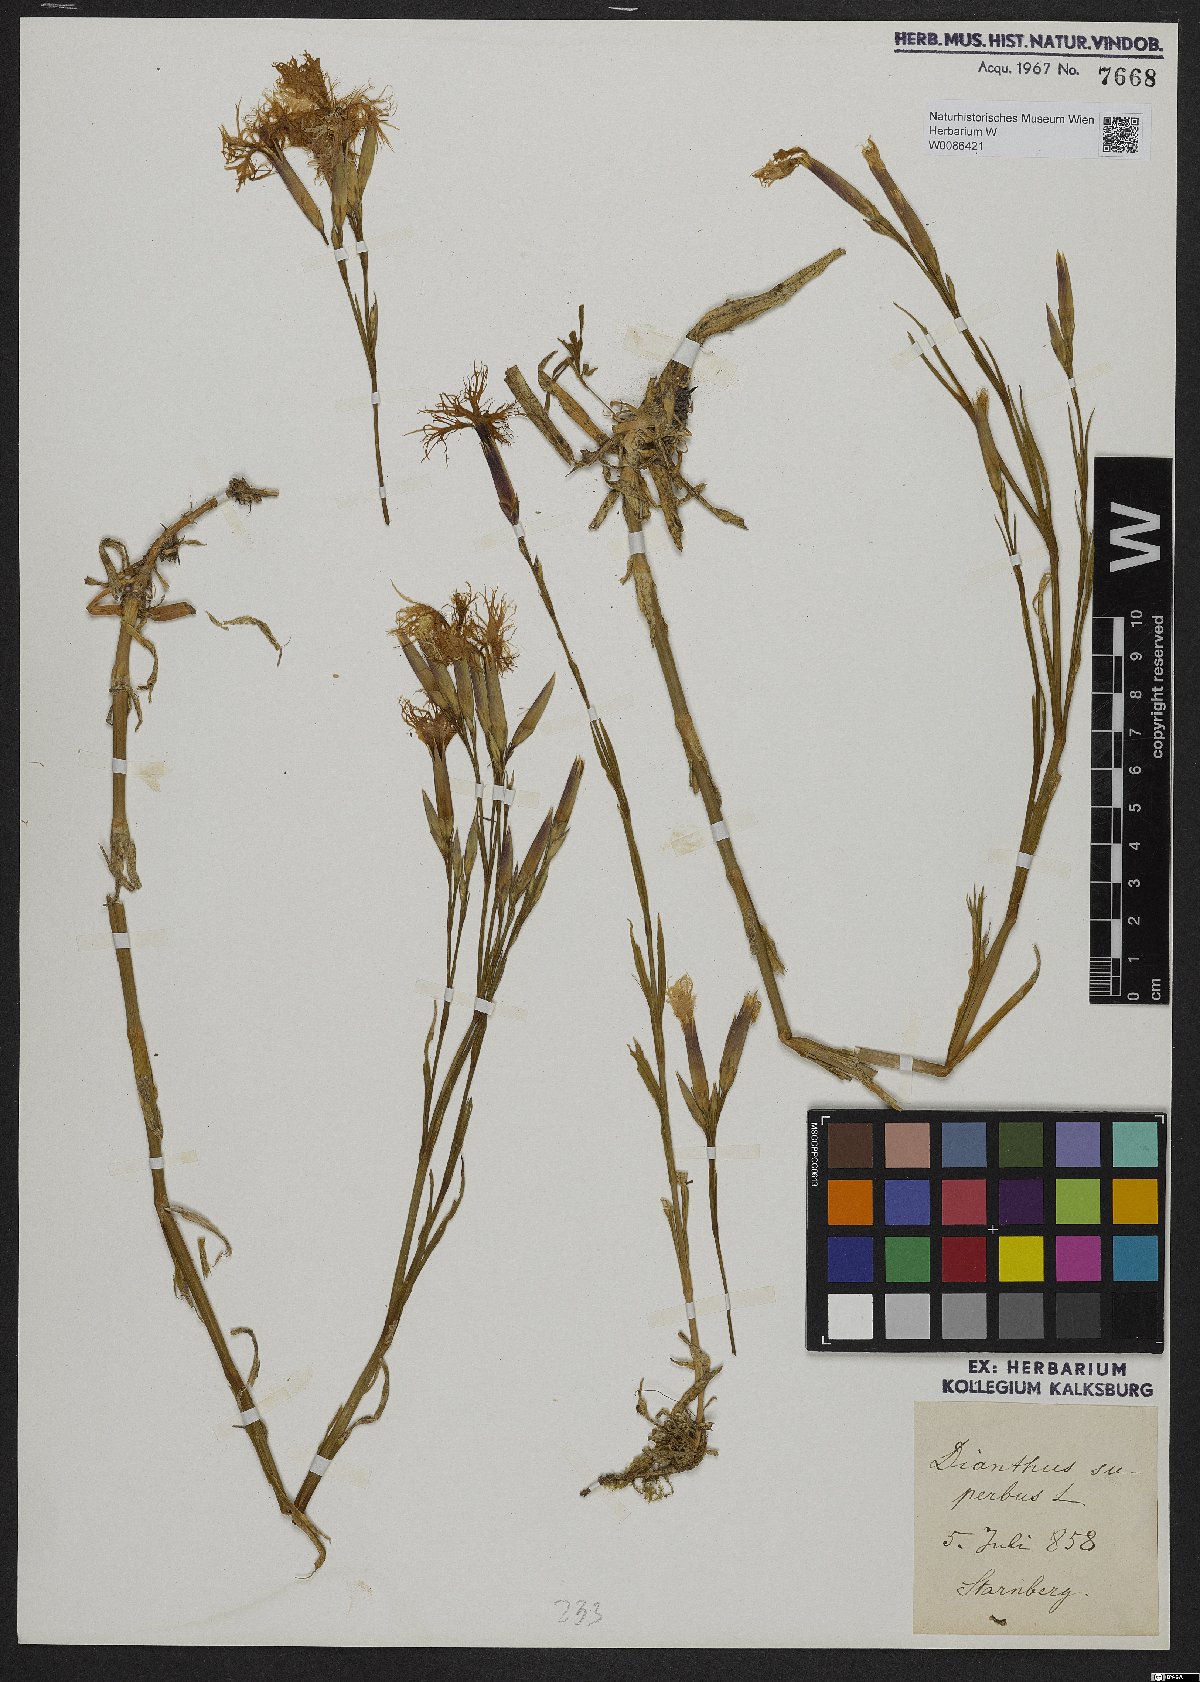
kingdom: Plantae
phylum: Tracheophyta
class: Magnoliopsida
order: Caryophyllales
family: Caryophyllaceae
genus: Dianthus
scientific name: Dianthus superbus
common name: Fringed pink
